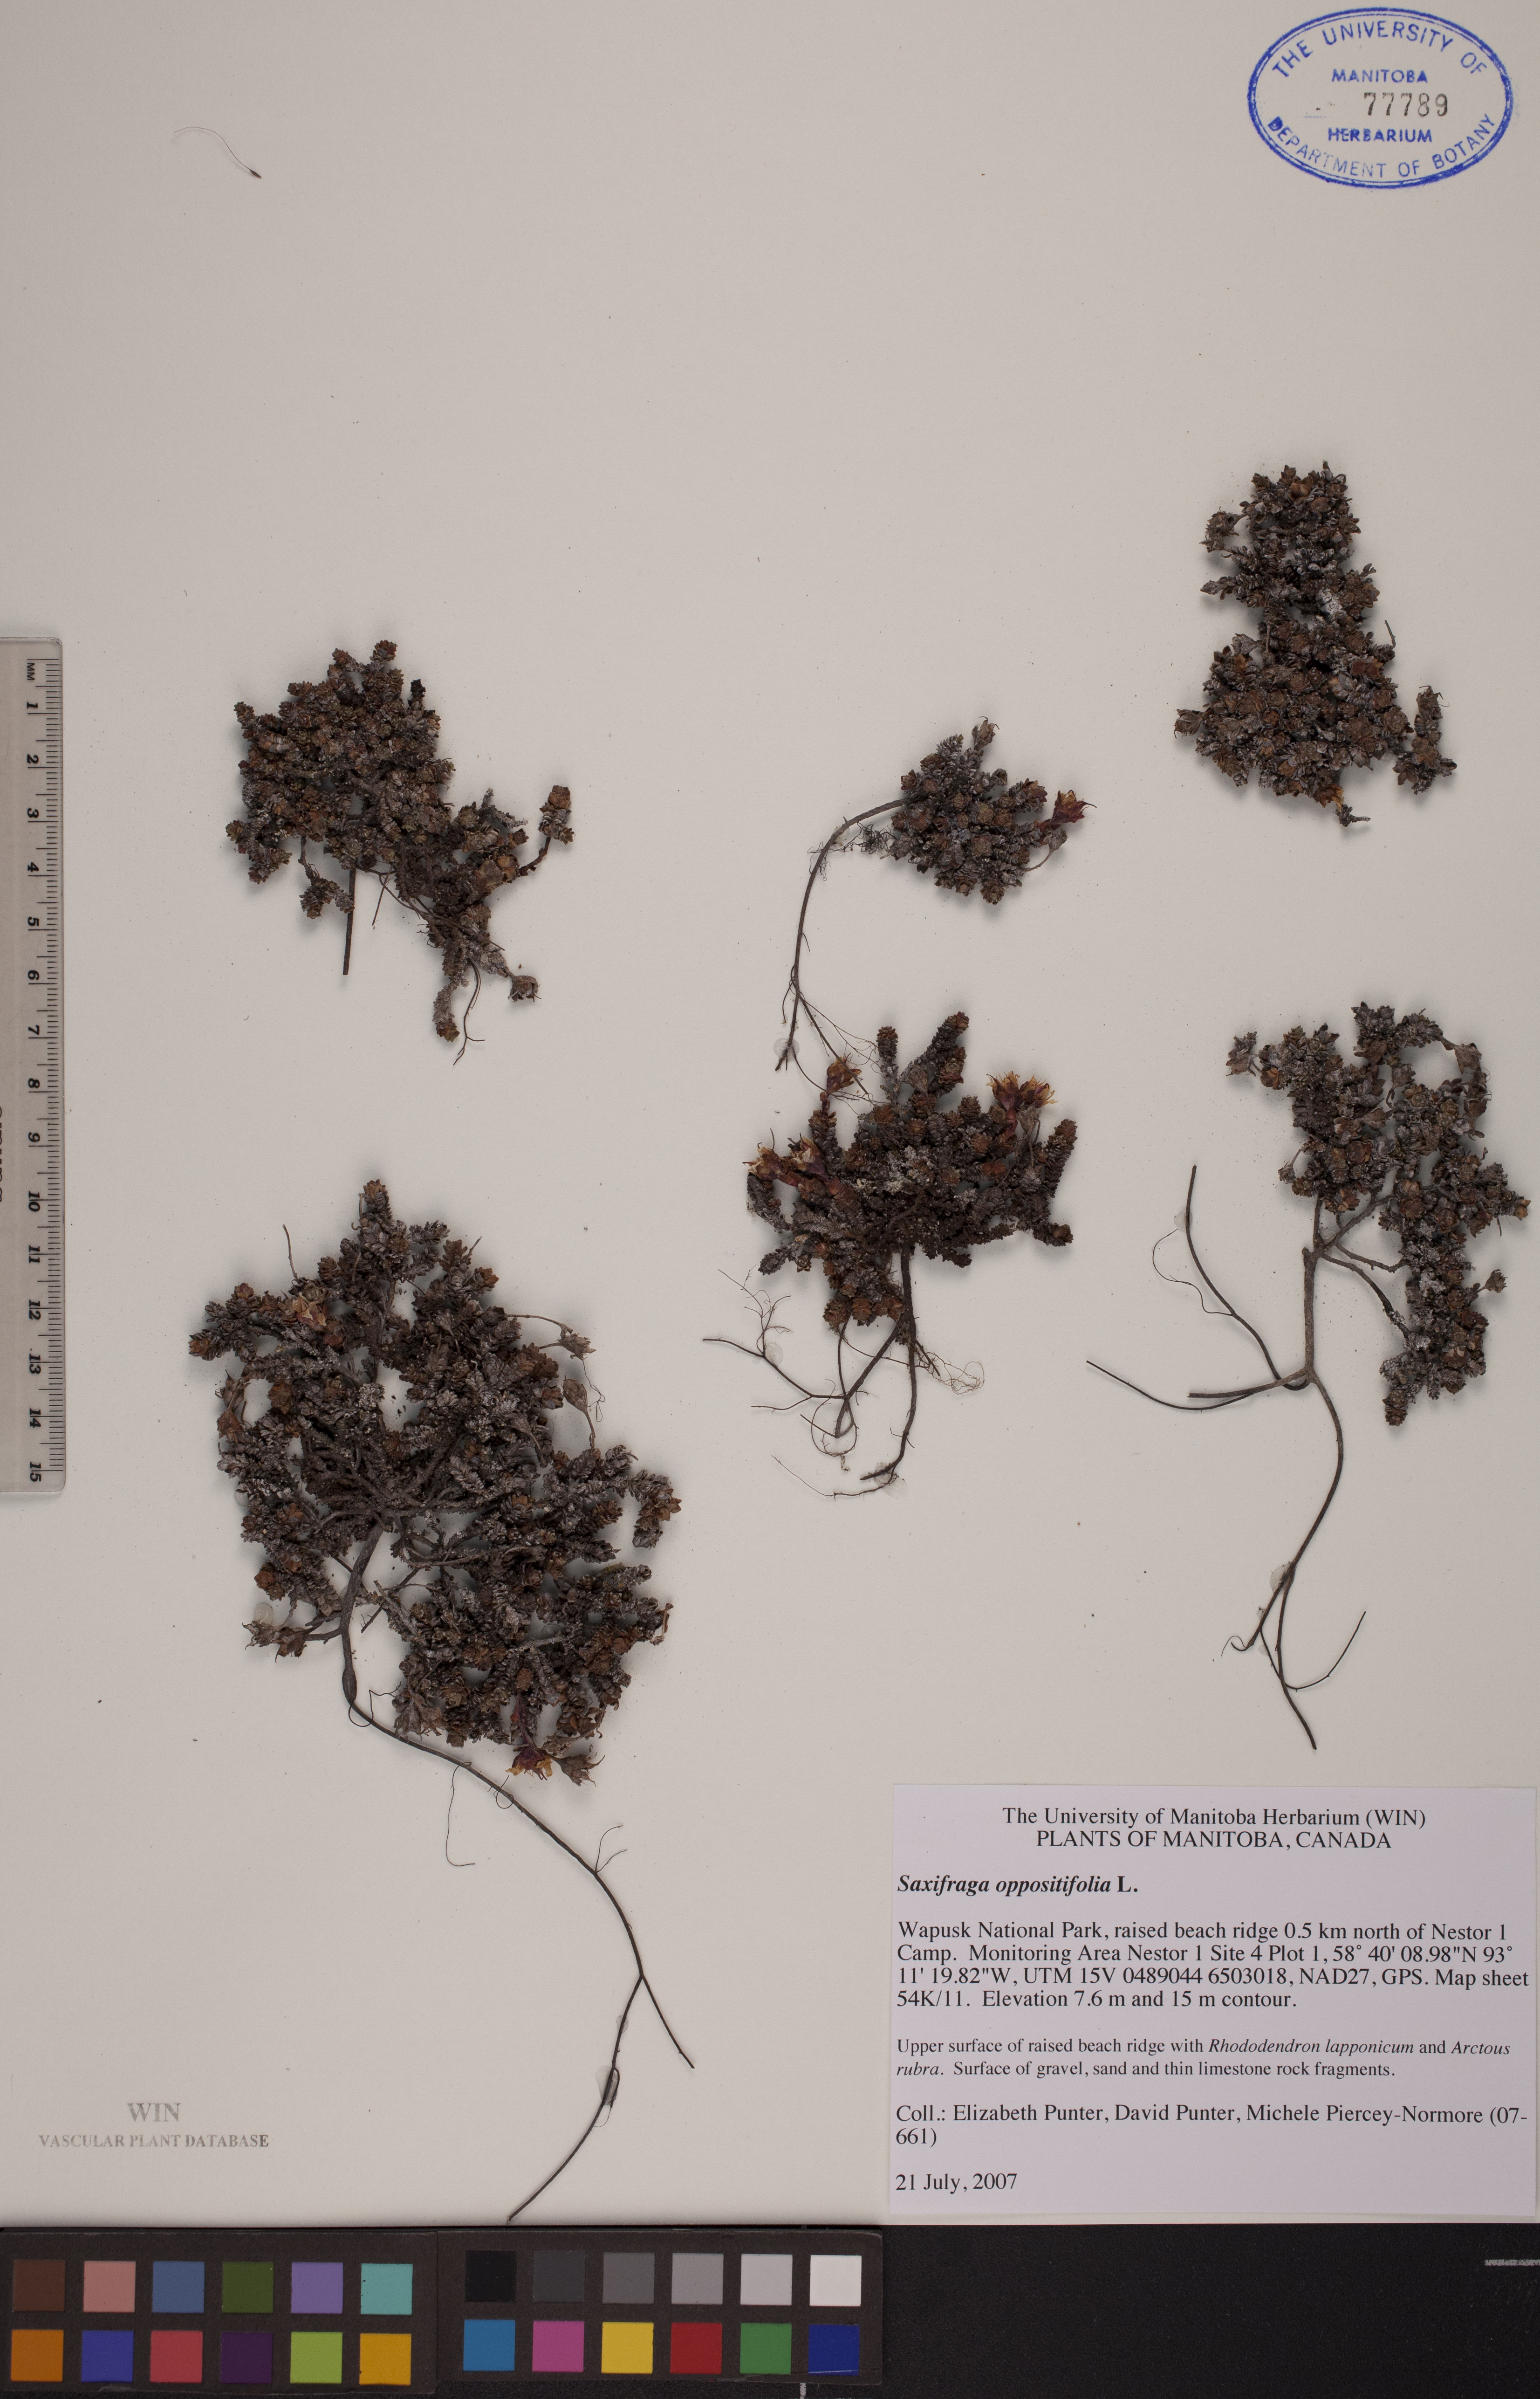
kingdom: Plantae
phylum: Tracheophyta
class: Magnoliopsida
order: Saxifragales
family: Saxifragaceae
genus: Saxifraga
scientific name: Saxifraga oppositifolia
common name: Purple saxifrage
